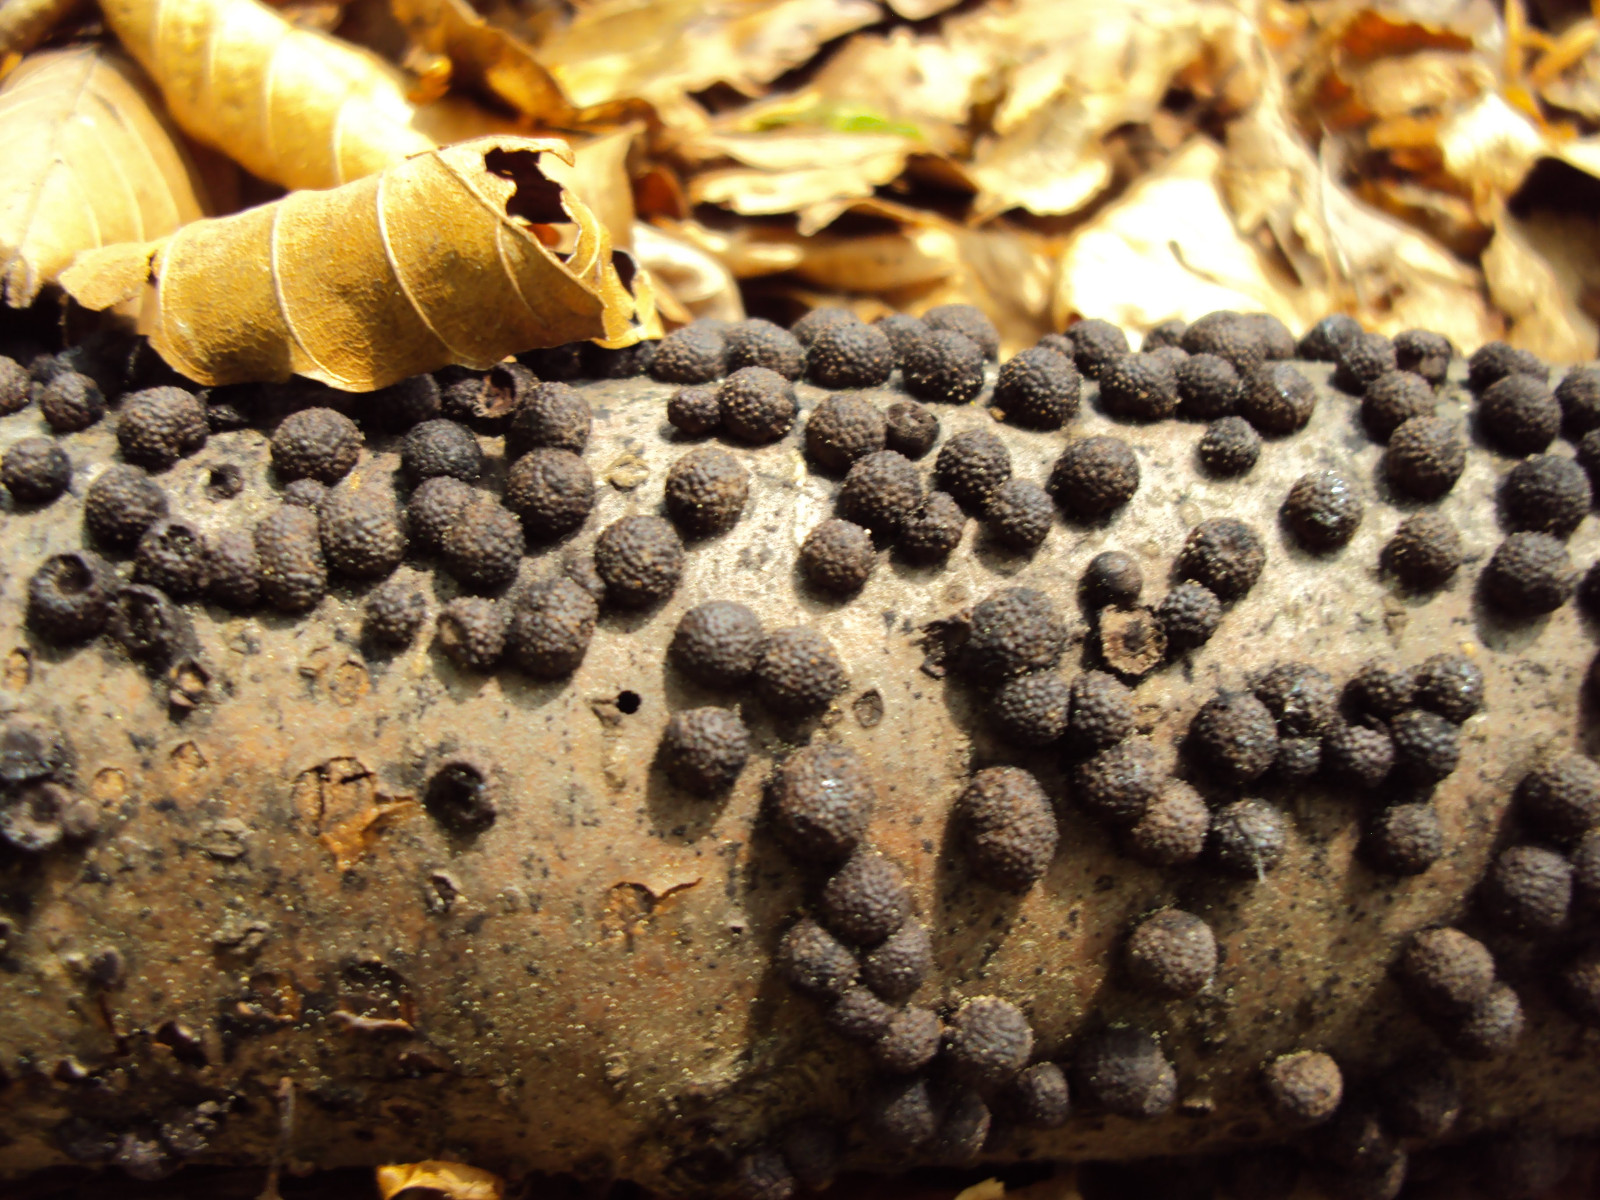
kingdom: Fungi
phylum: Ascomycota
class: Sordariomycetes
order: Xylariales
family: Hypoxylaceae
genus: Hypoxylon
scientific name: Hypoxylon fragiforme
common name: kuljordbær
